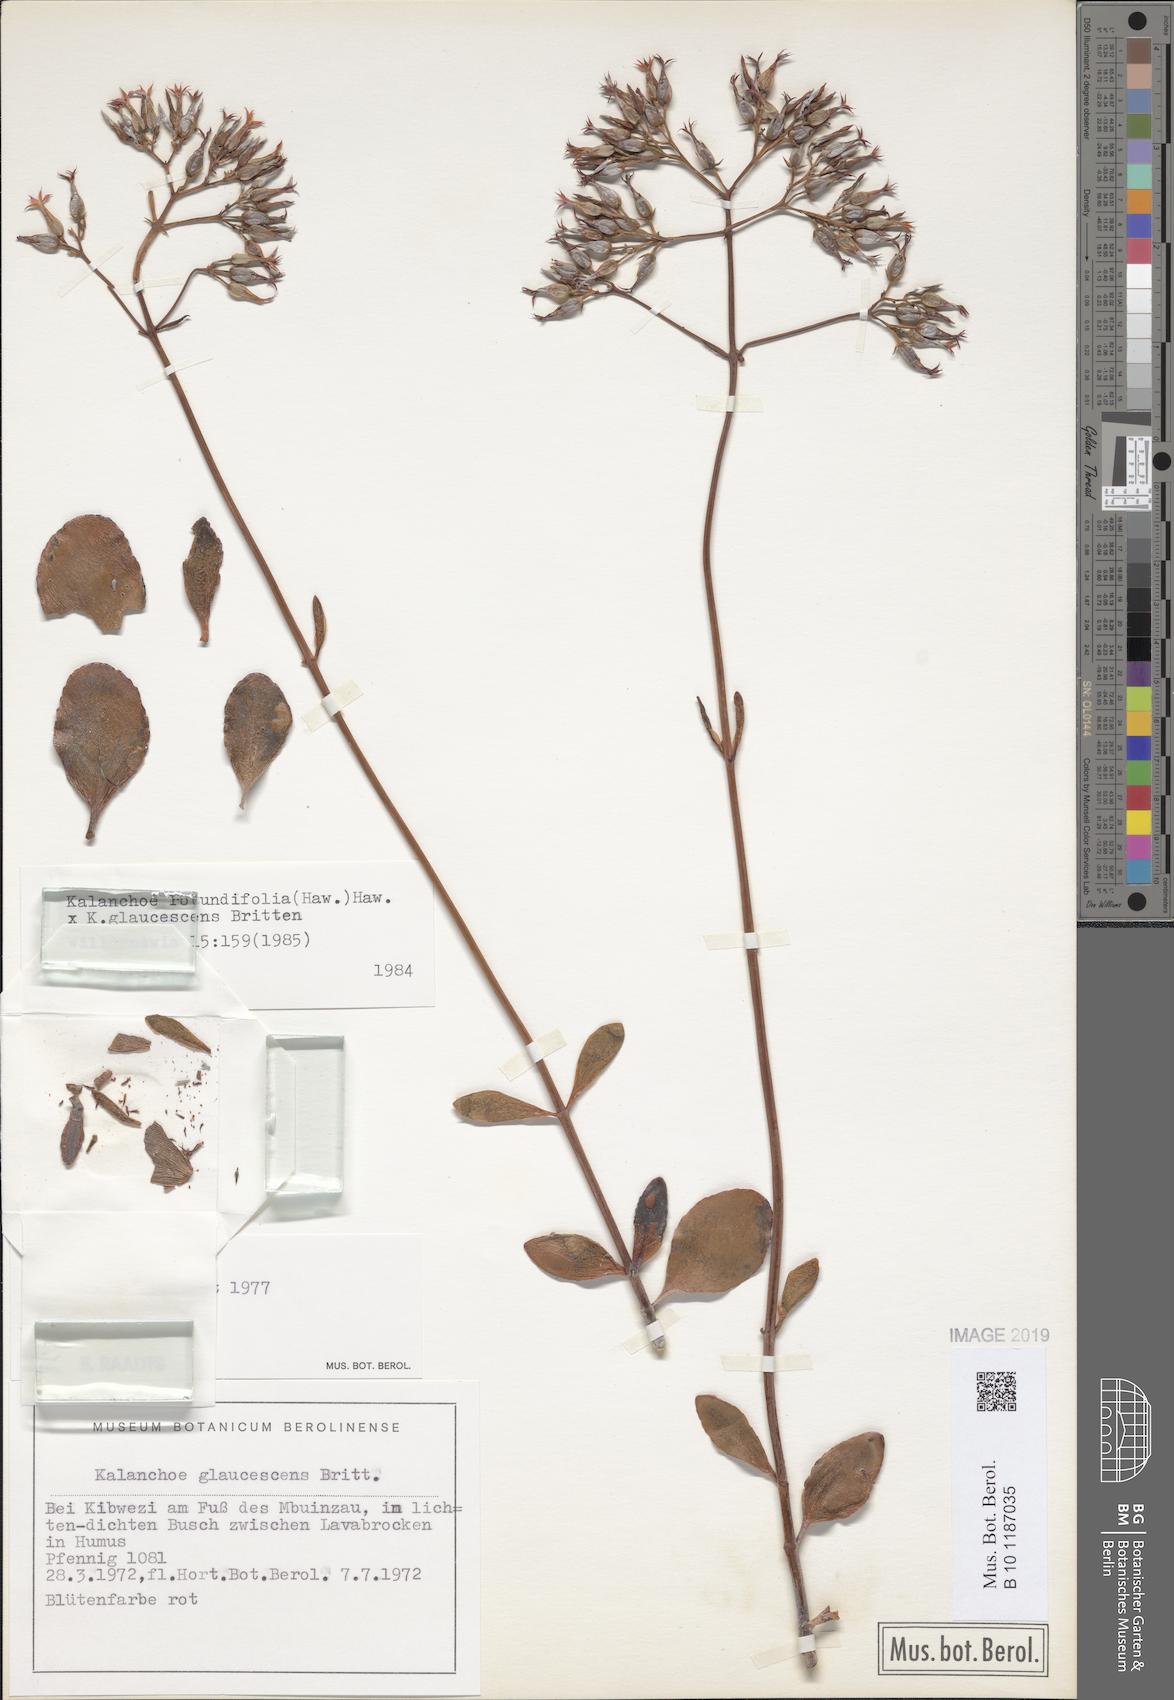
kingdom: Plantae
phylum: Tracheophyta
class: Magnoliopsida
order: Saxifragales
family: Crassulaceae
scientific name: Crassulaceae
